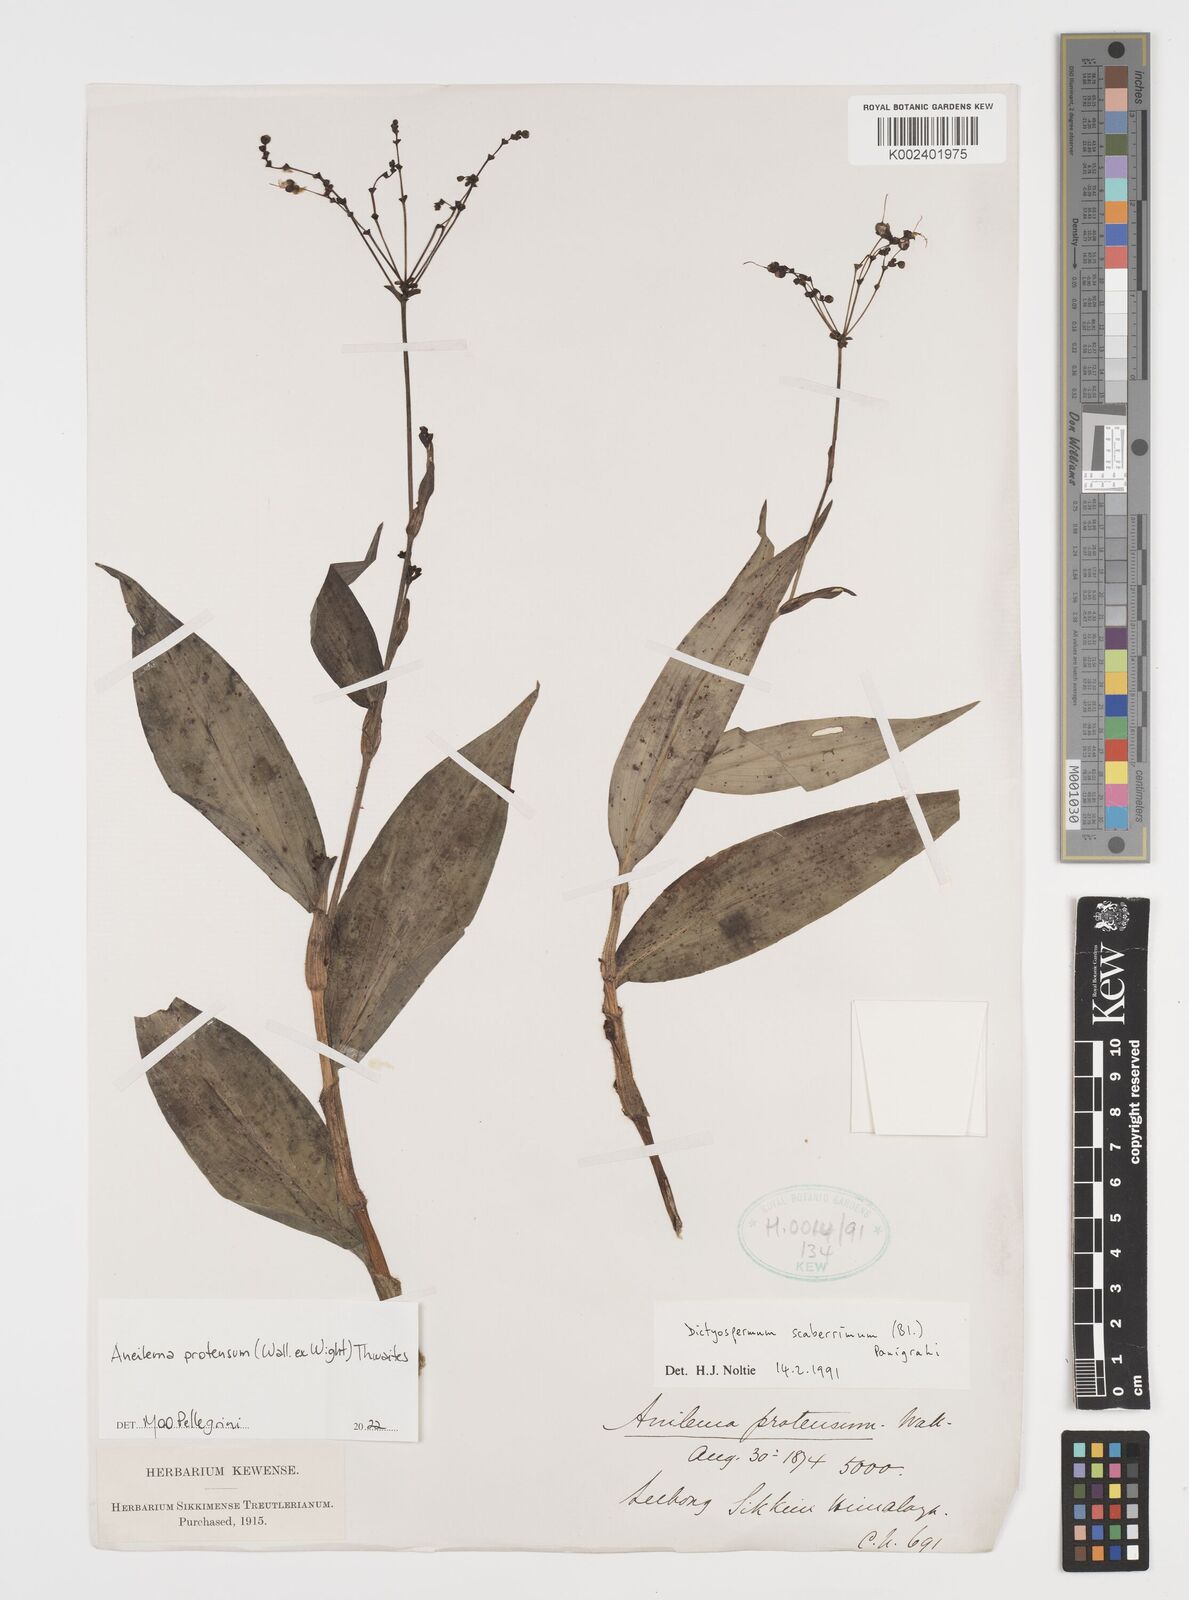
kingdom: Plantae
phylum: Tracheophyta
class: Liliopsida
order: Commelinales
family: Commelinaceae
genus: Rhopalephora
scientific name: Rhopalephora
